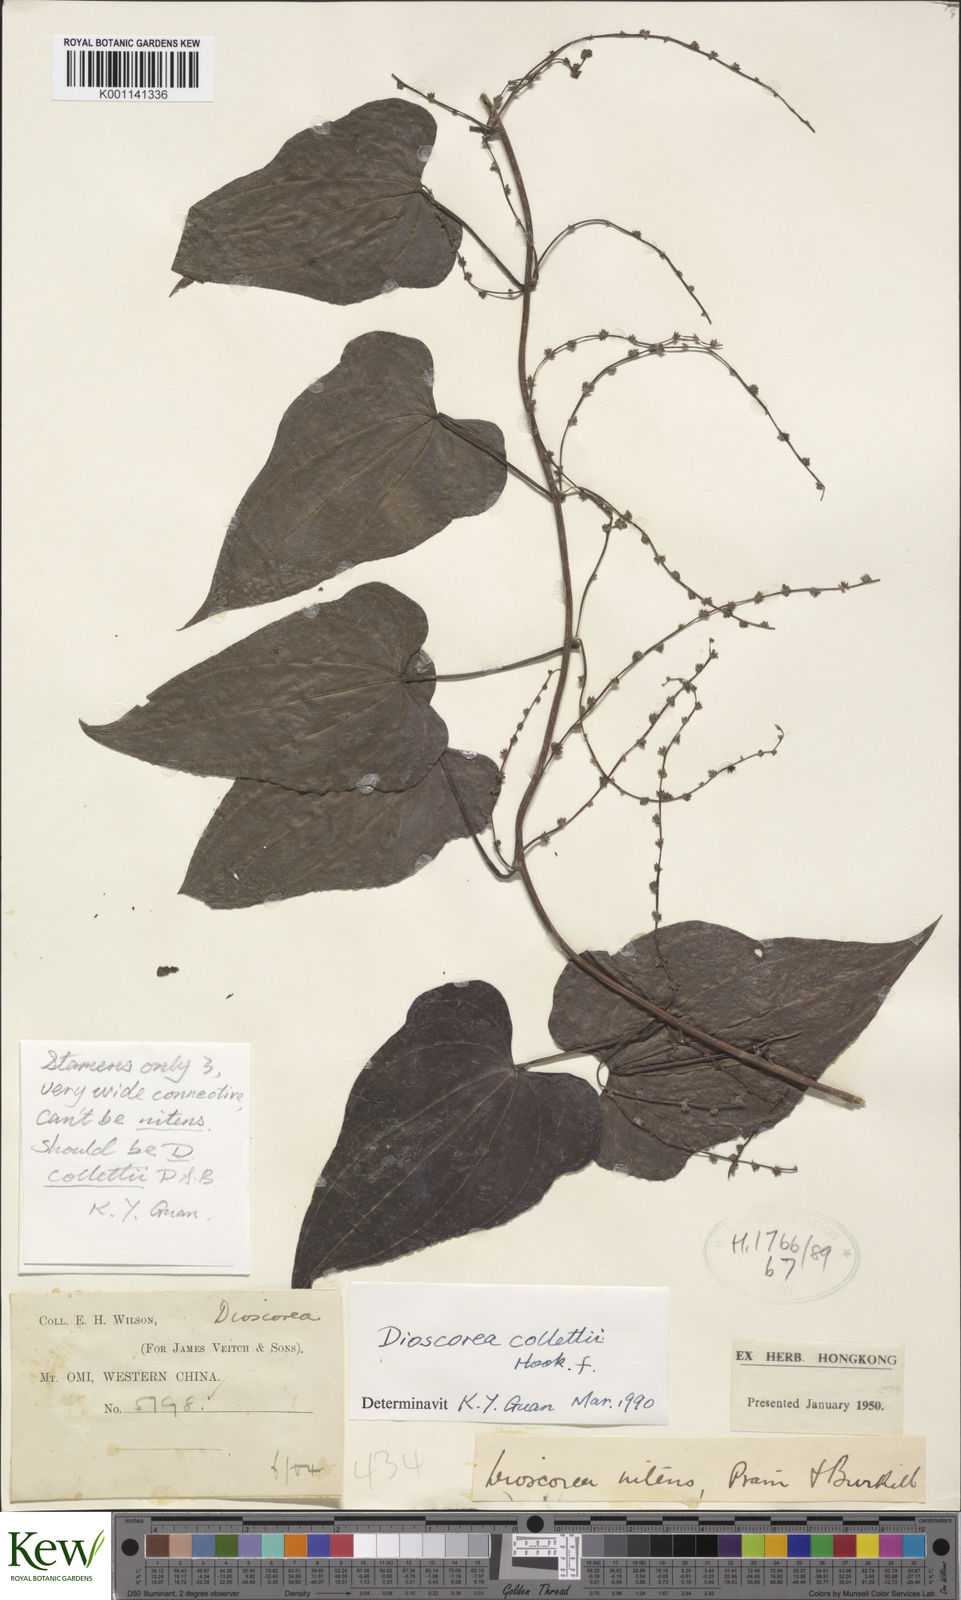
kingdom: Plantae
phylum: Tracheophyta
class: Liliopsida
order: Dioscoreales
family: Dioscoreaceae
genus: Dioscorea
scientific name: Dioscorea collettii
